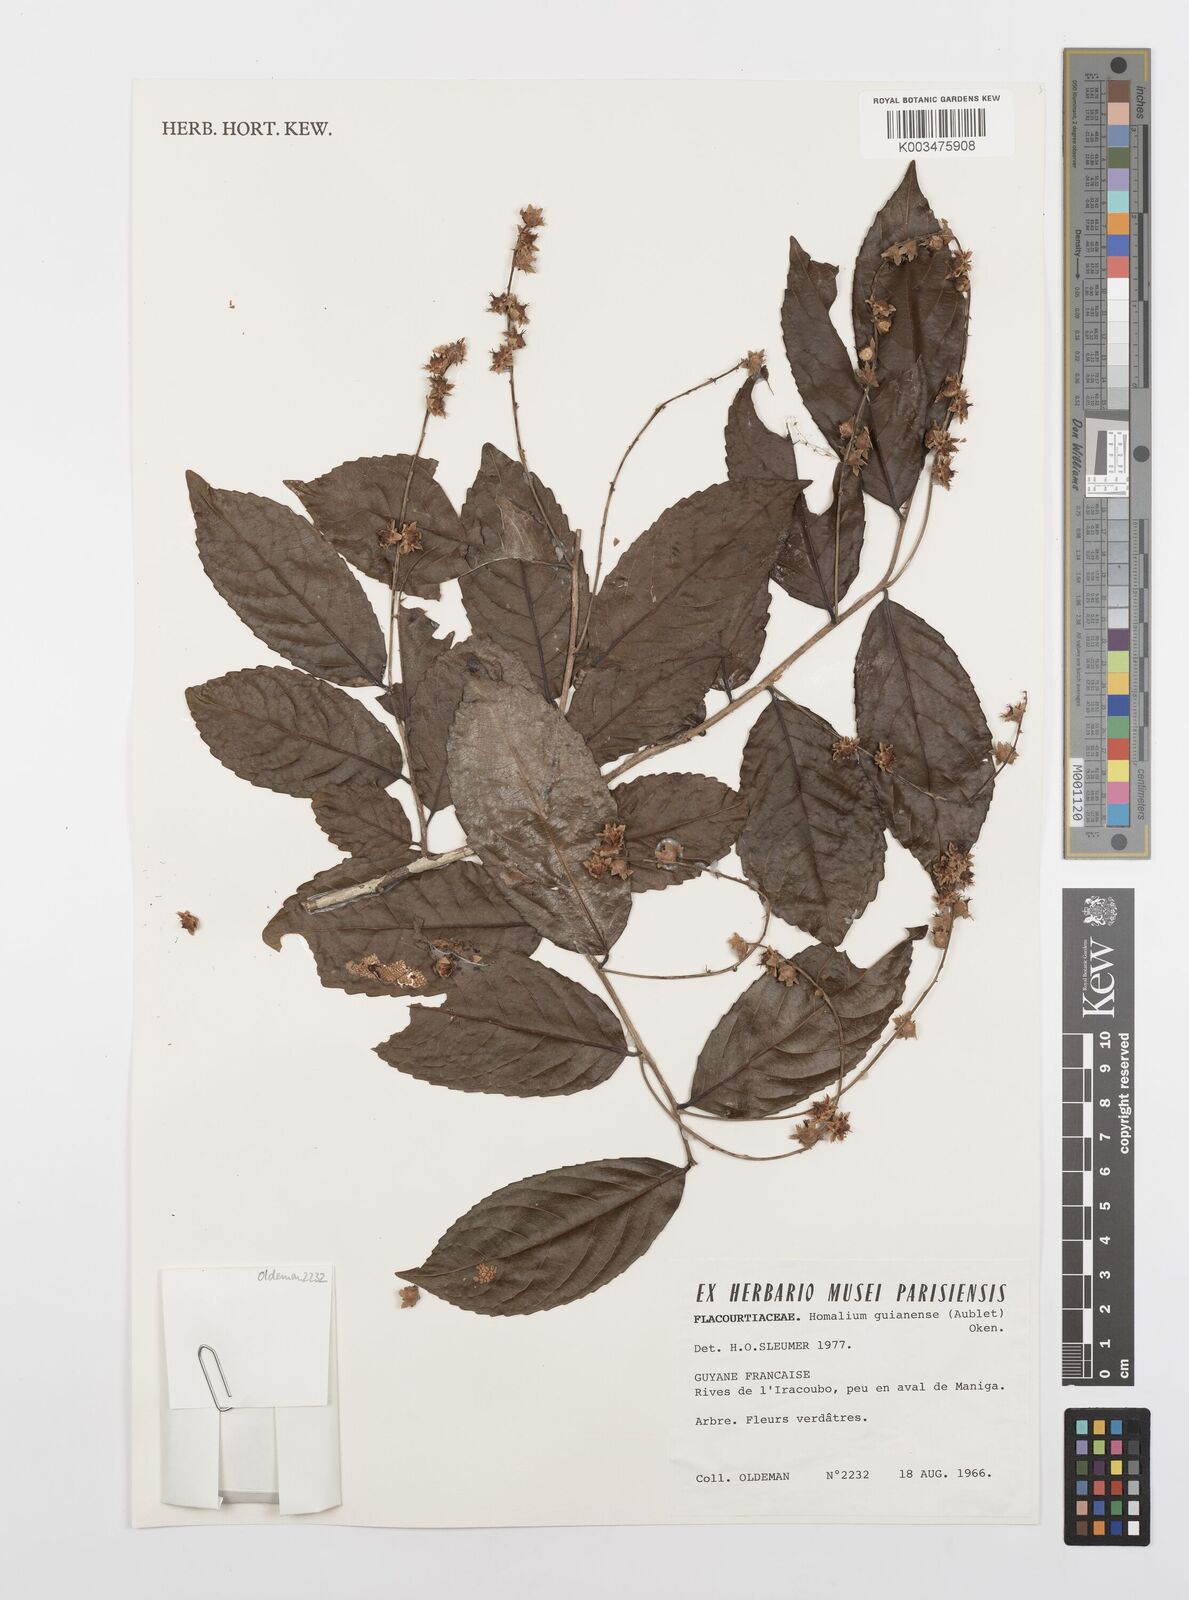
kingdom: Plantae
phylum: Tracheophyta
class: Magnoliopsida
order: Malpighiales
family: Salicaceae
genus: Homalium
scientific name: Homalium guianense
